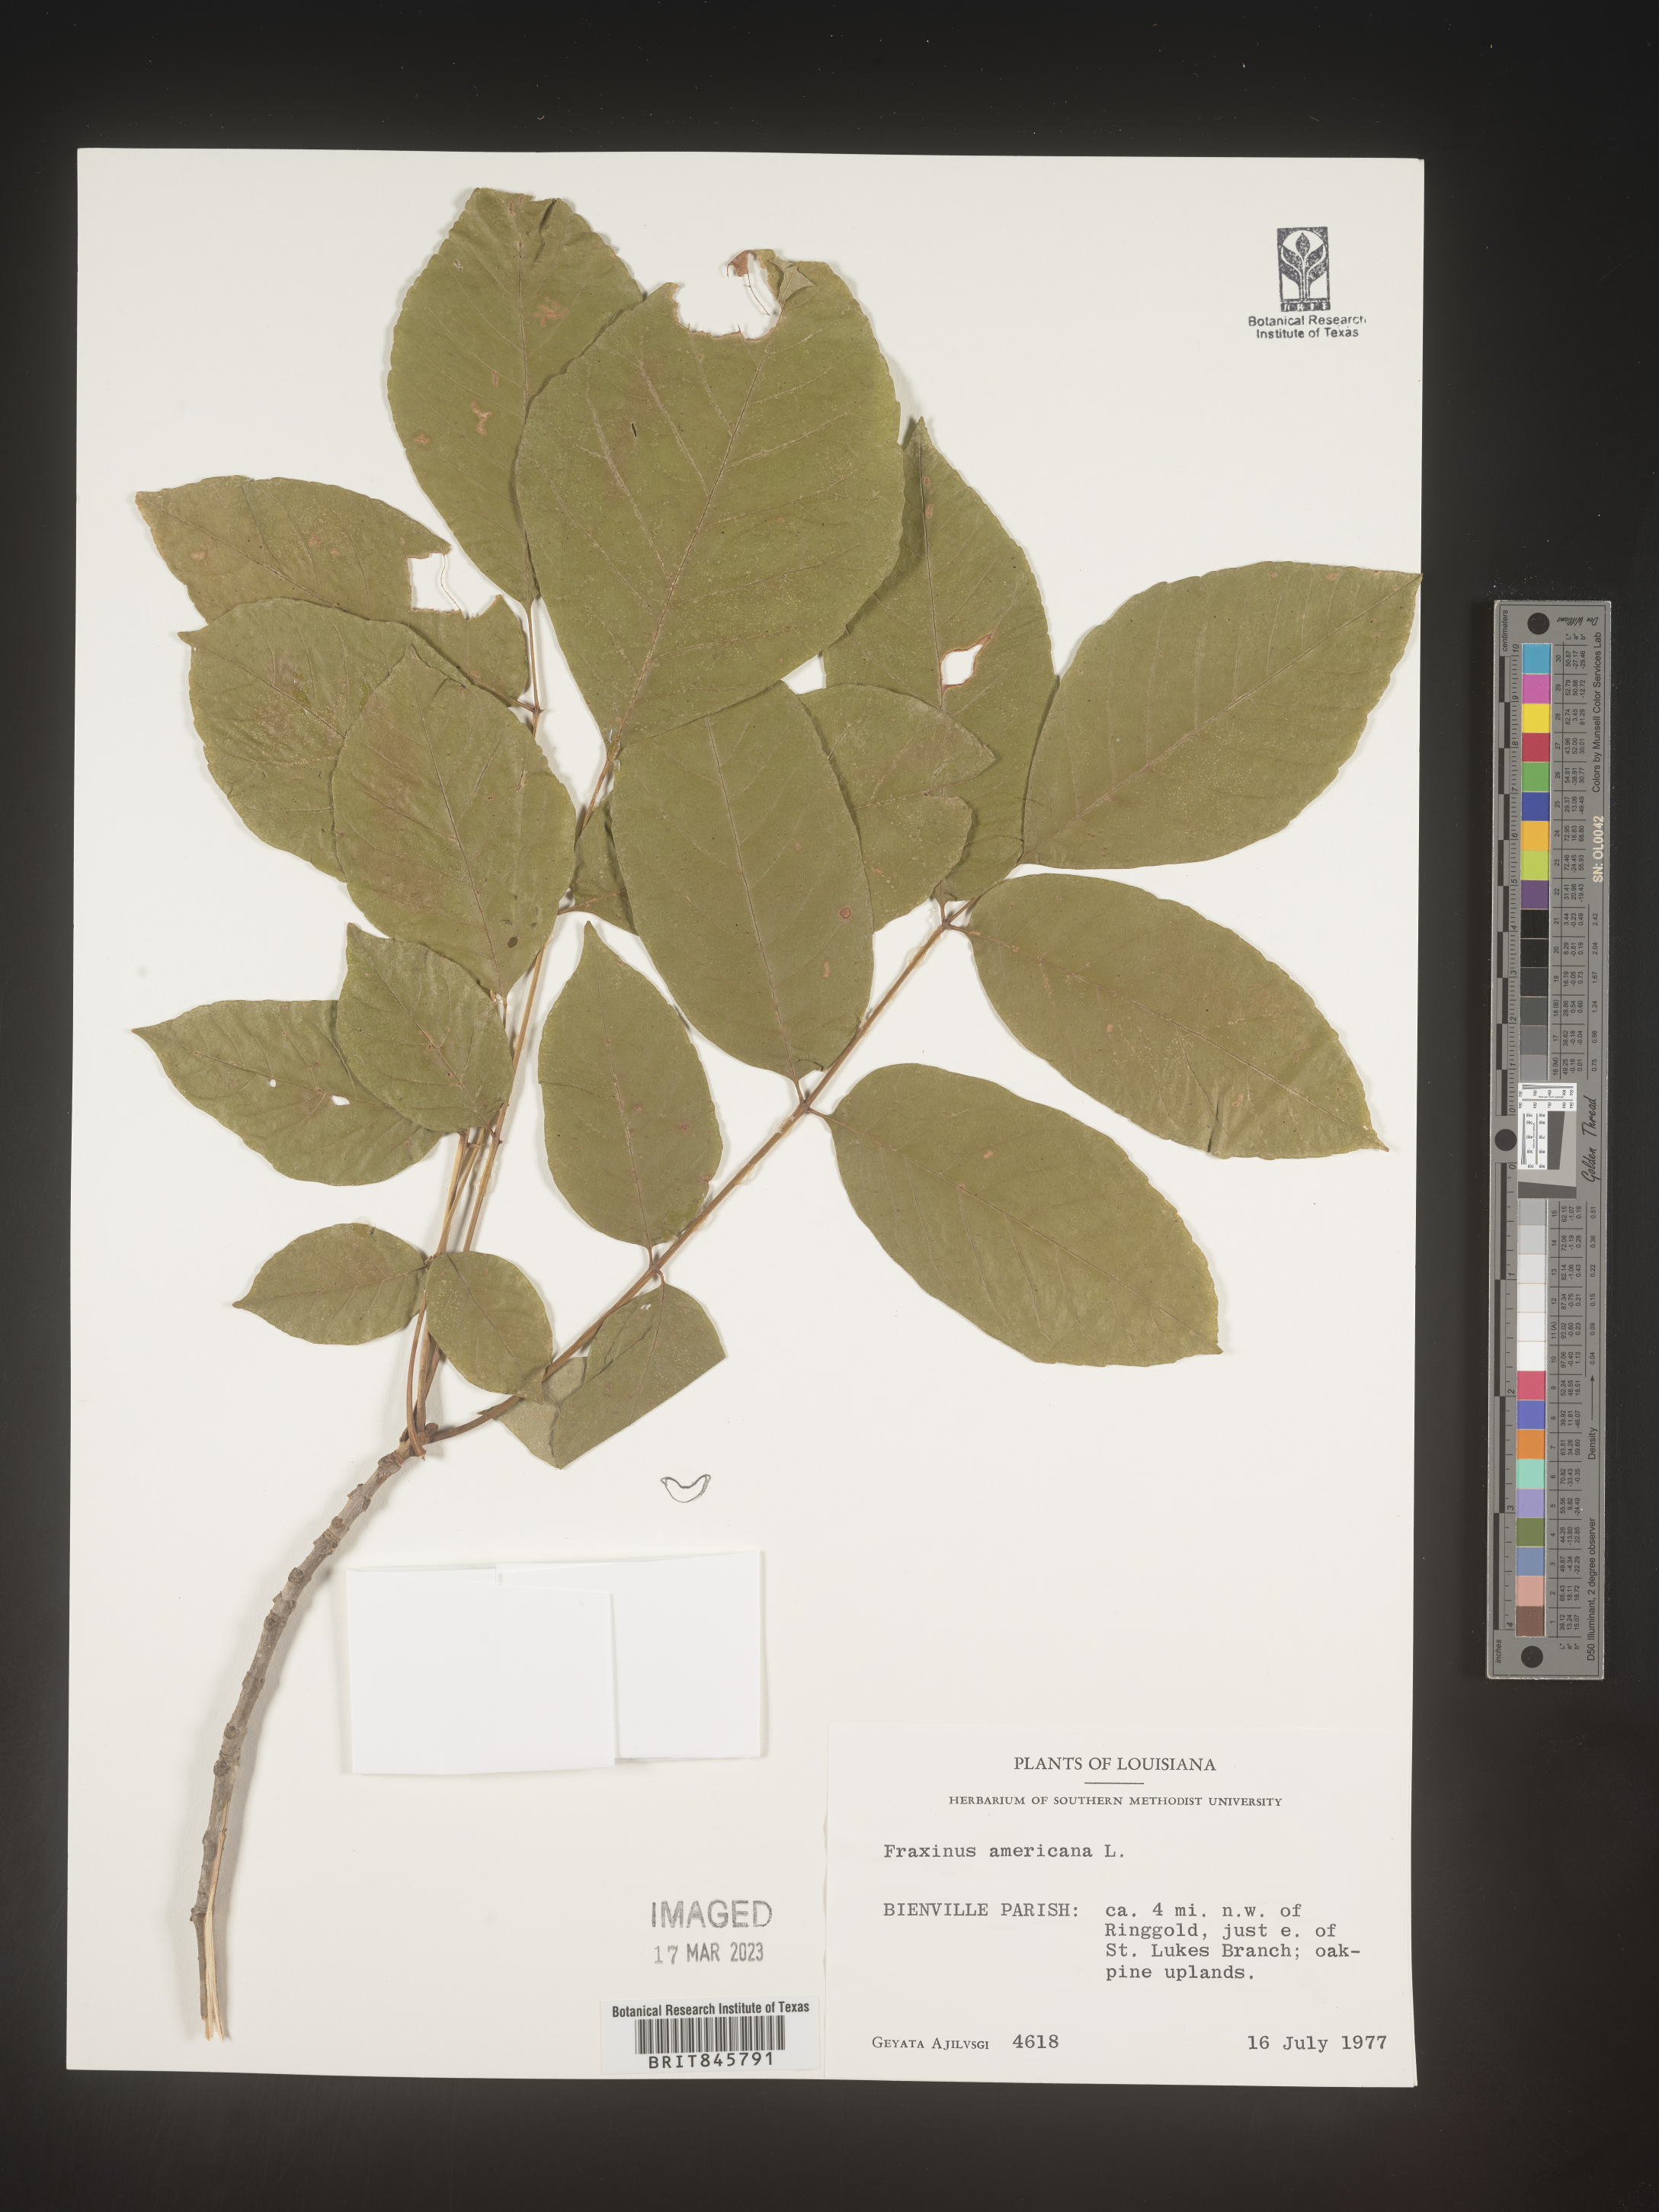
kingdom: Plantae
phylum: Tracheophyta
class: Magnoliopsida
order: Lamiales
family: Oleaceae
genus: Fraxinus
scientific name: Fraxinus americana
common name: White ash
